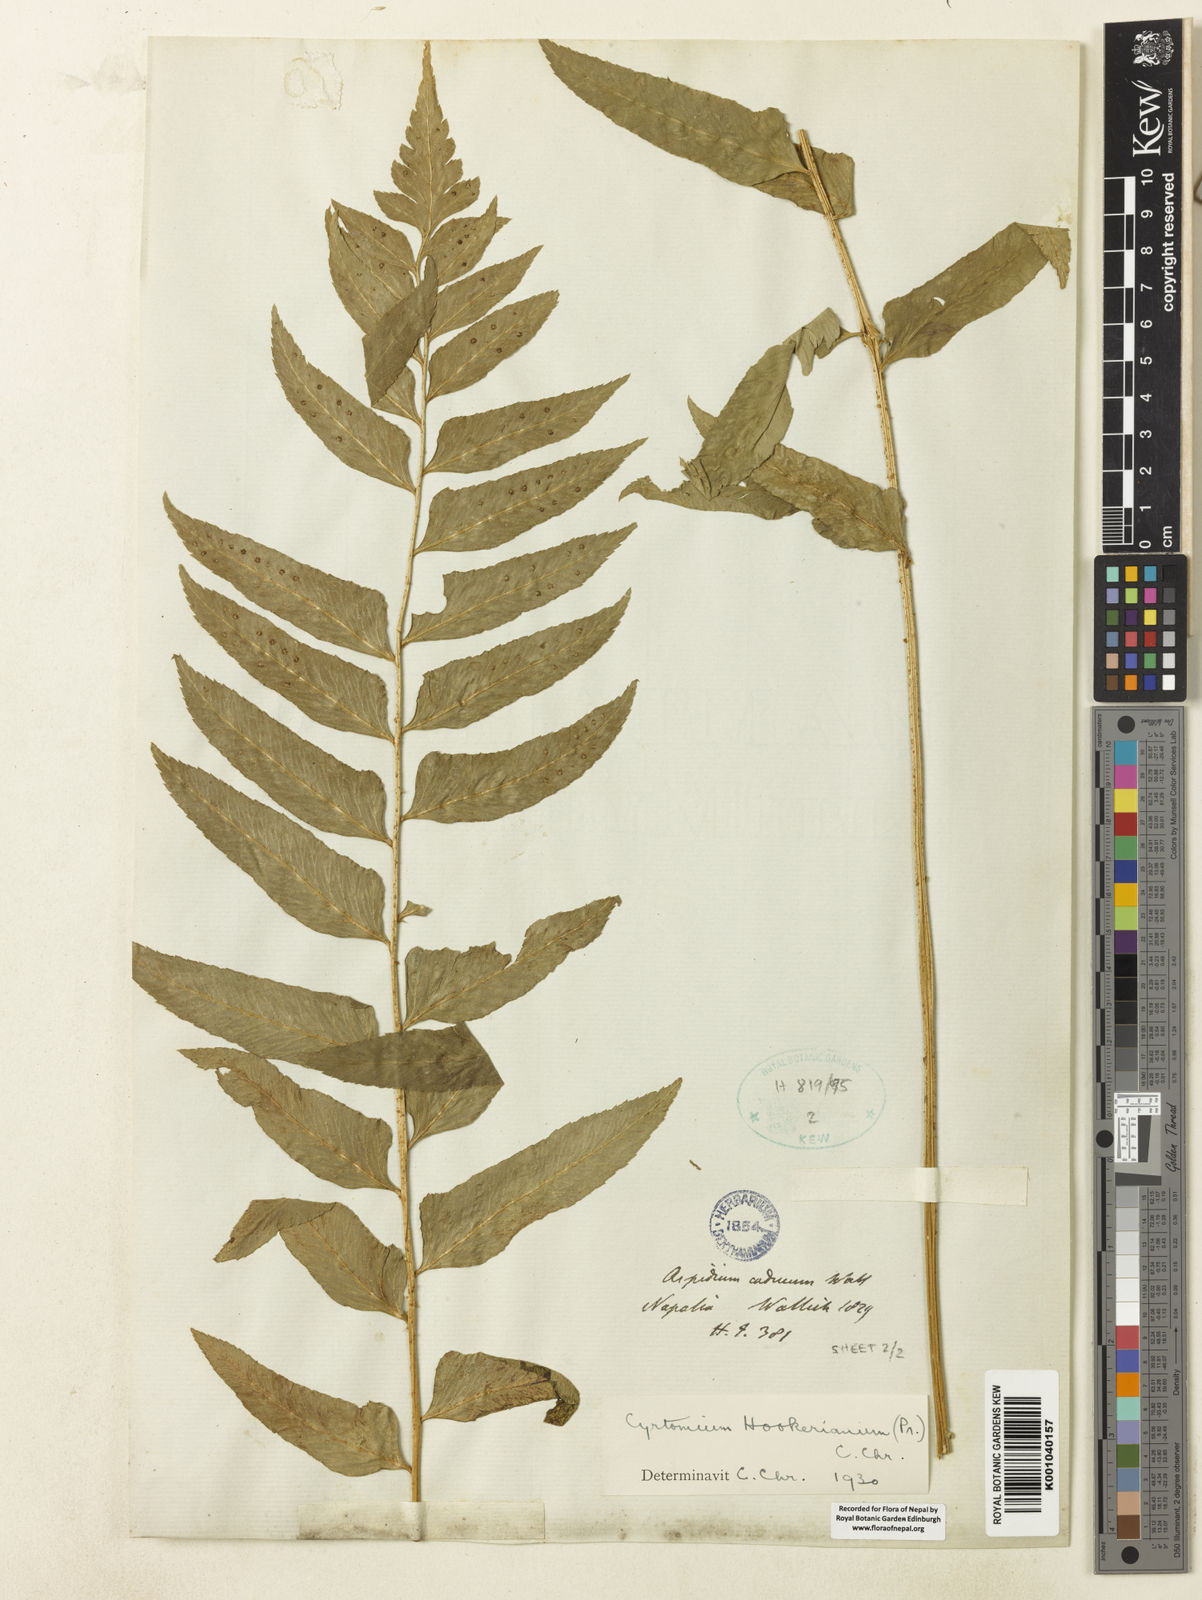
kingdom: Plantae
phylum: Tracheophyta
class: Polypodiopsida
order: Polypodiales
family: Dryopteridaceae
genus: Polystichum
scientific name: Polystichum hookerianum
